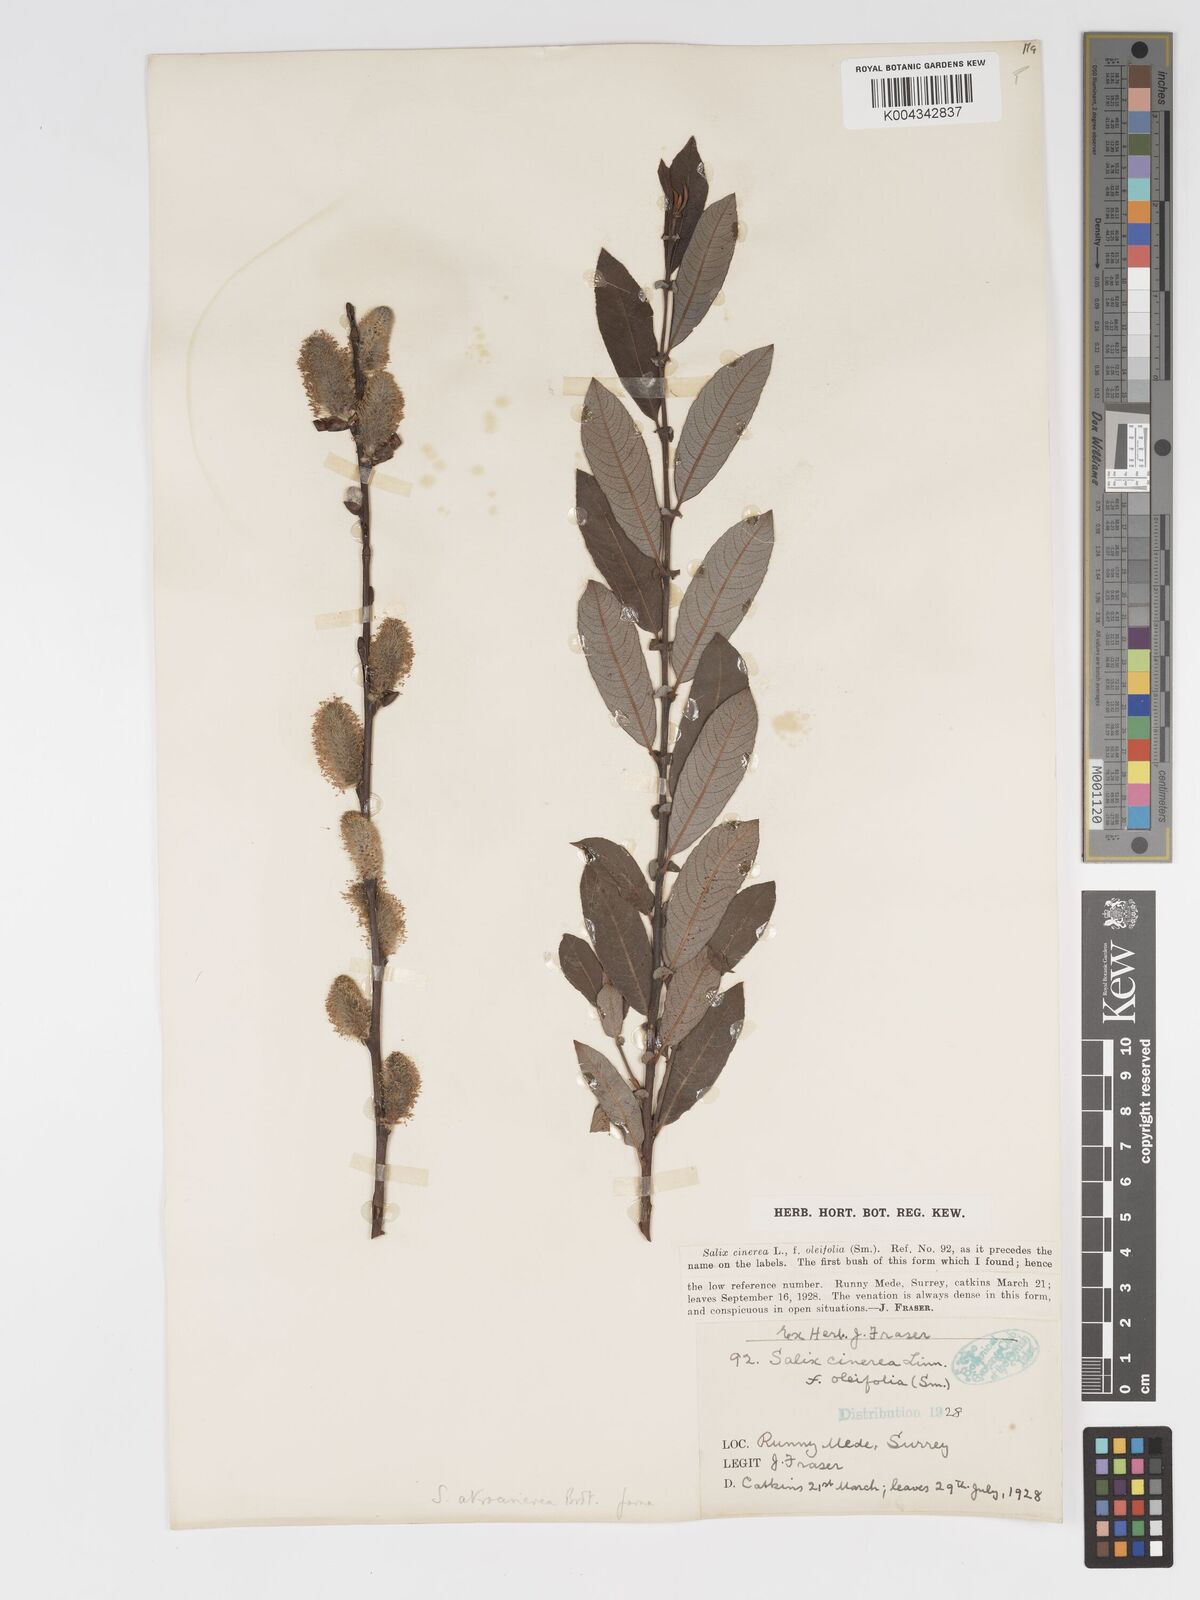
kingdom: Plantae
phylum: Tracheophyta
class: Magnoliopsida
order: Malpighiales
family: Salicaceae
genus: Salix
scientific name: Salix atrocinerea
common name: Rusty willow
